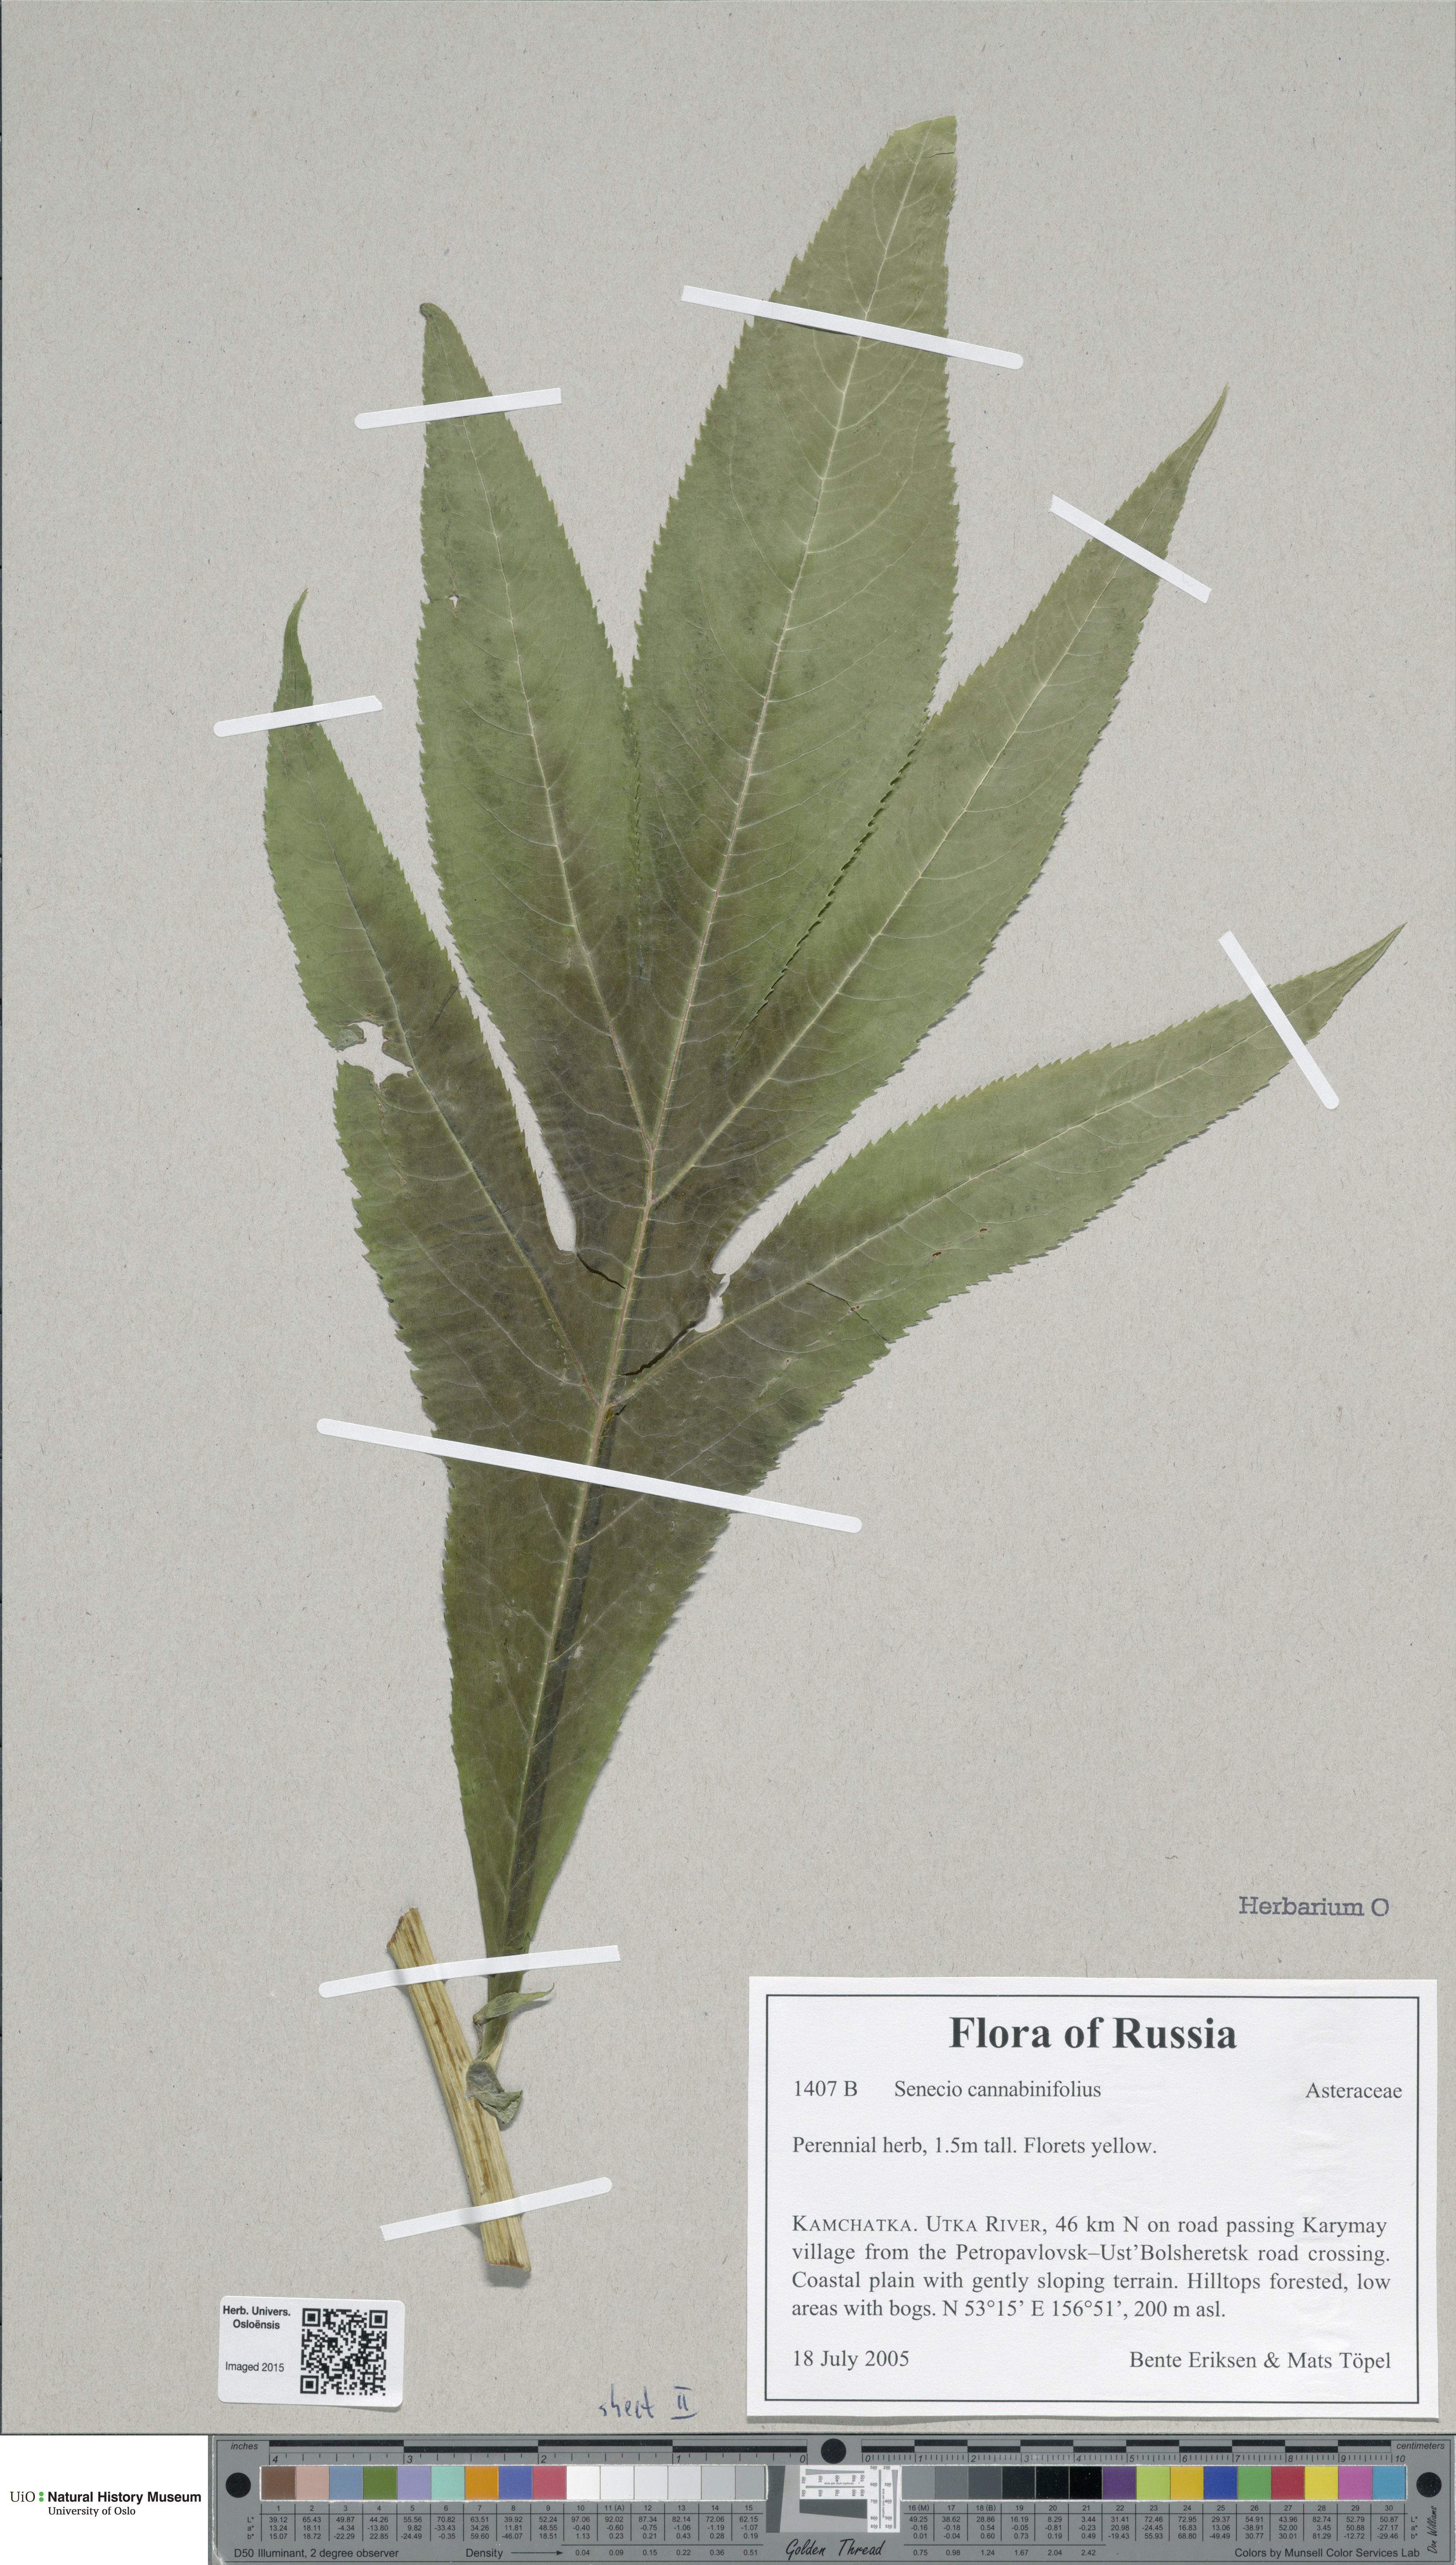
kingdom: Plantae
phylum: Tracheophyta
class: Magnoliopsida
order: Asterales
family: Asteraceae
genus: Senecio
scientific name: Senecio brasiliensis
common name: Hemp-leaf ragwort
